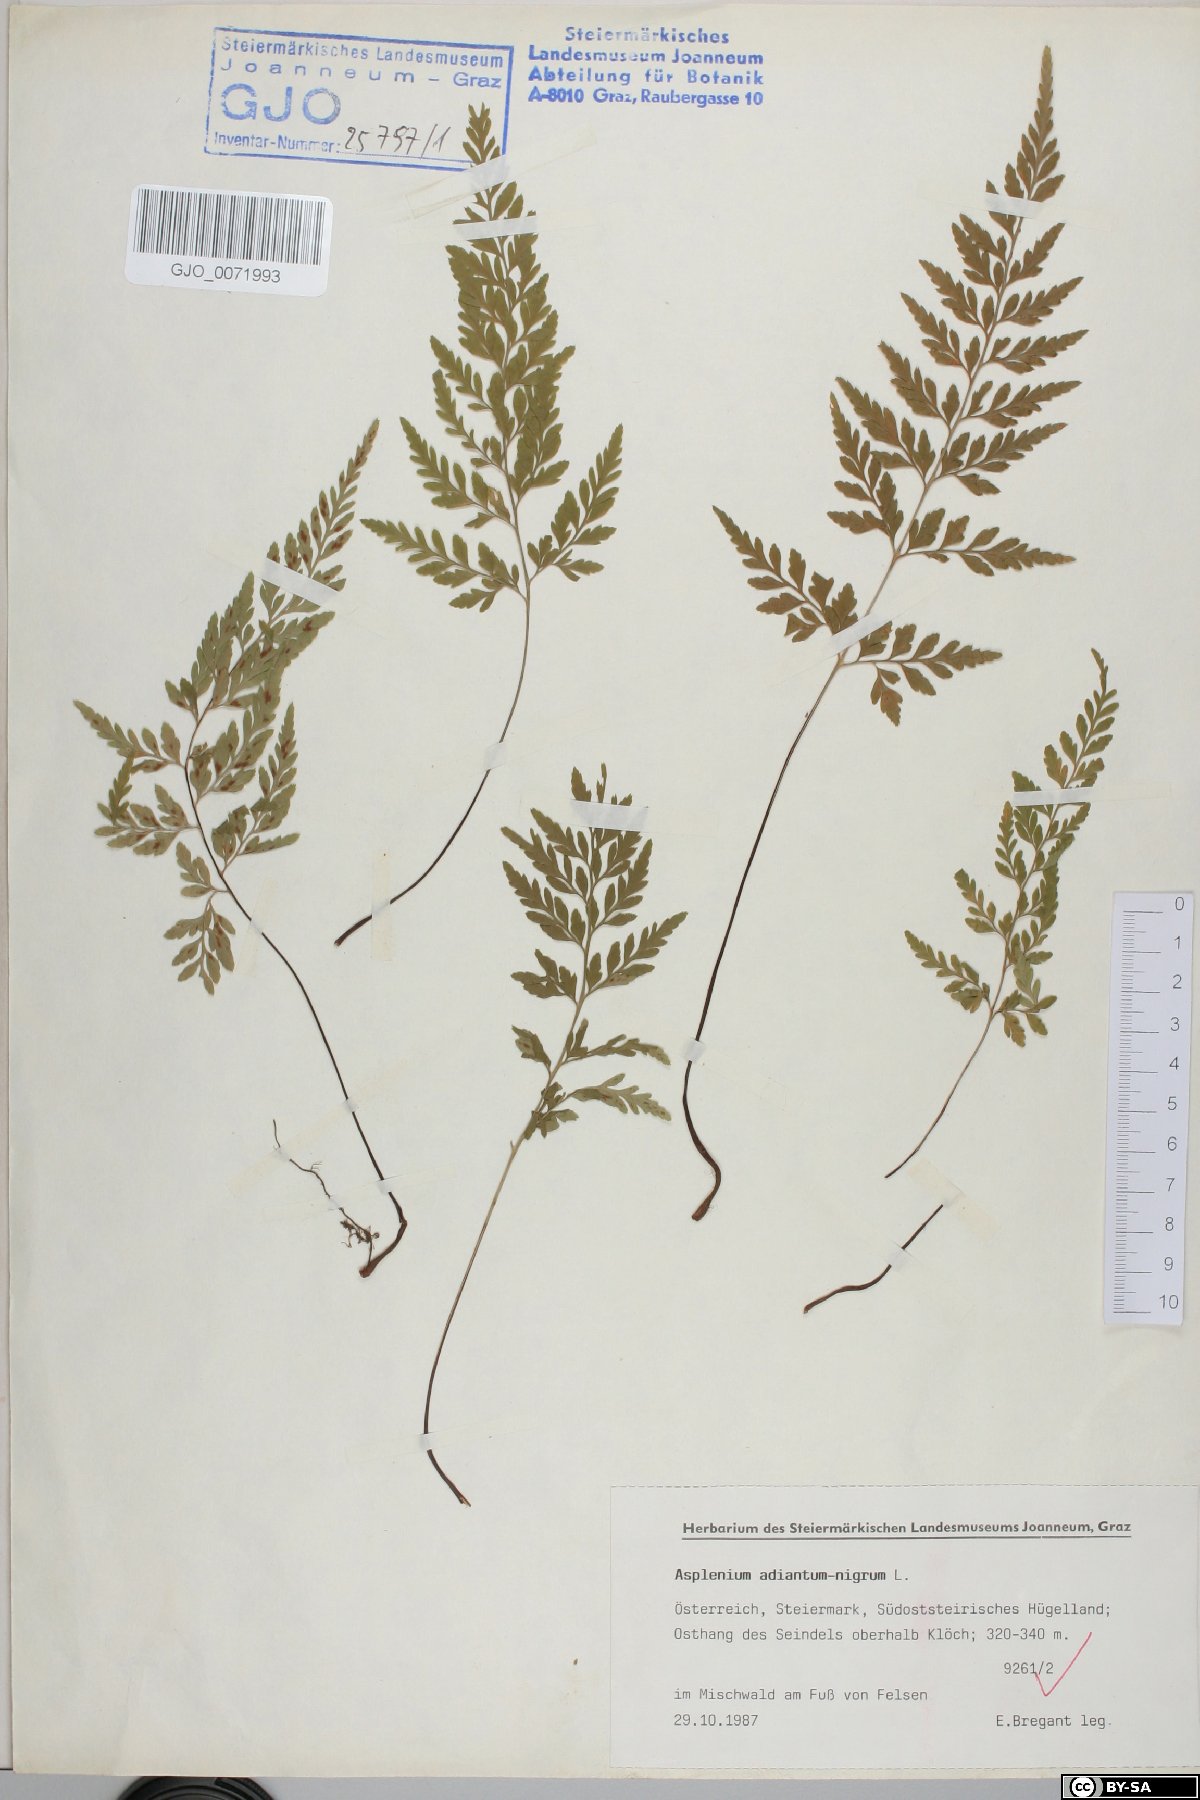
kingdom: Plantae
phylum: Tracheophyta
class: Polypodiopsida
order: Polypodiales
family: Aspleniaceae
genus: Asplenium
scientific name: Asplenium adiantum-nigrum
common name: Black spleenwort
